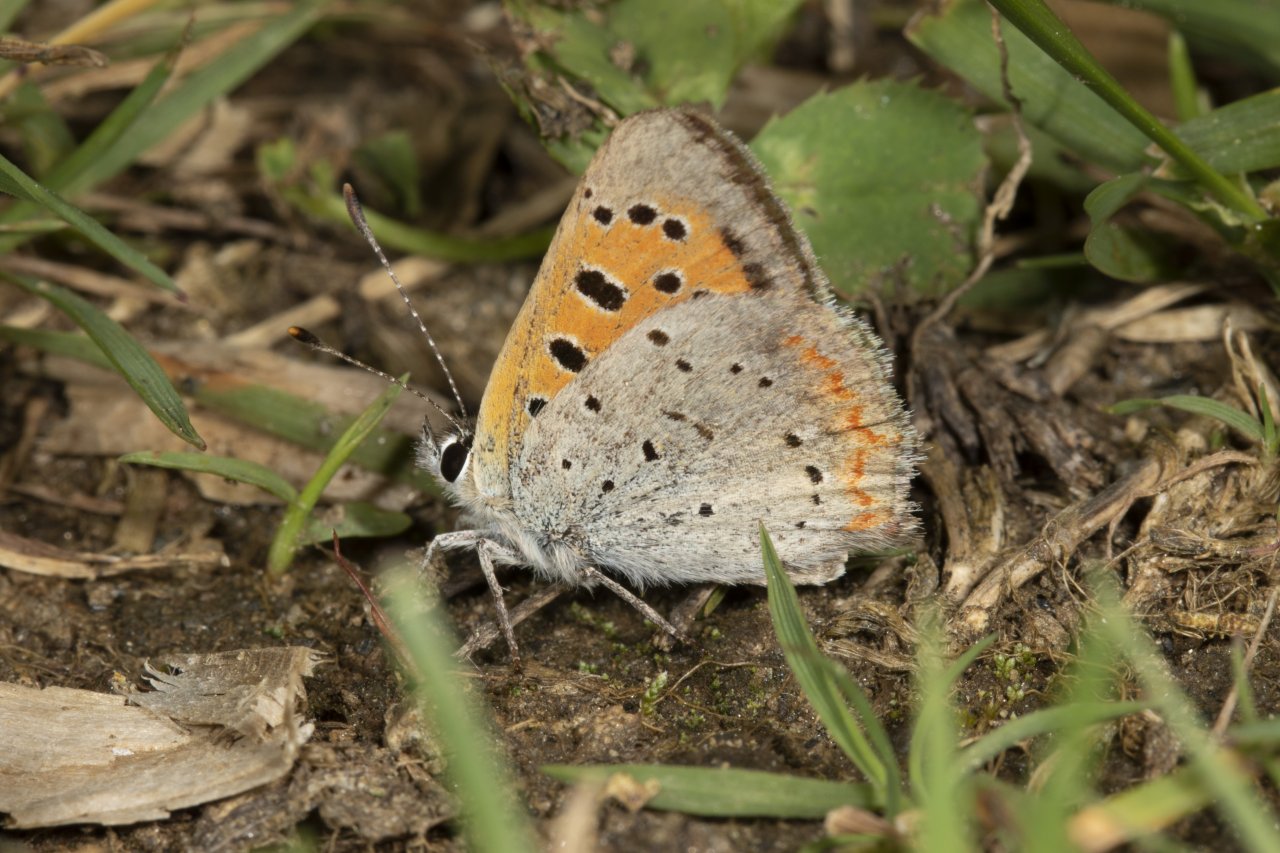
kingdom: Animalia
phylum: Arthropoda
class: Insecta
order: Lepidoptera
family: Lycaenidae
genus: Lycaena
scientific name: Lycaena phlaeas
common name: American Copper
